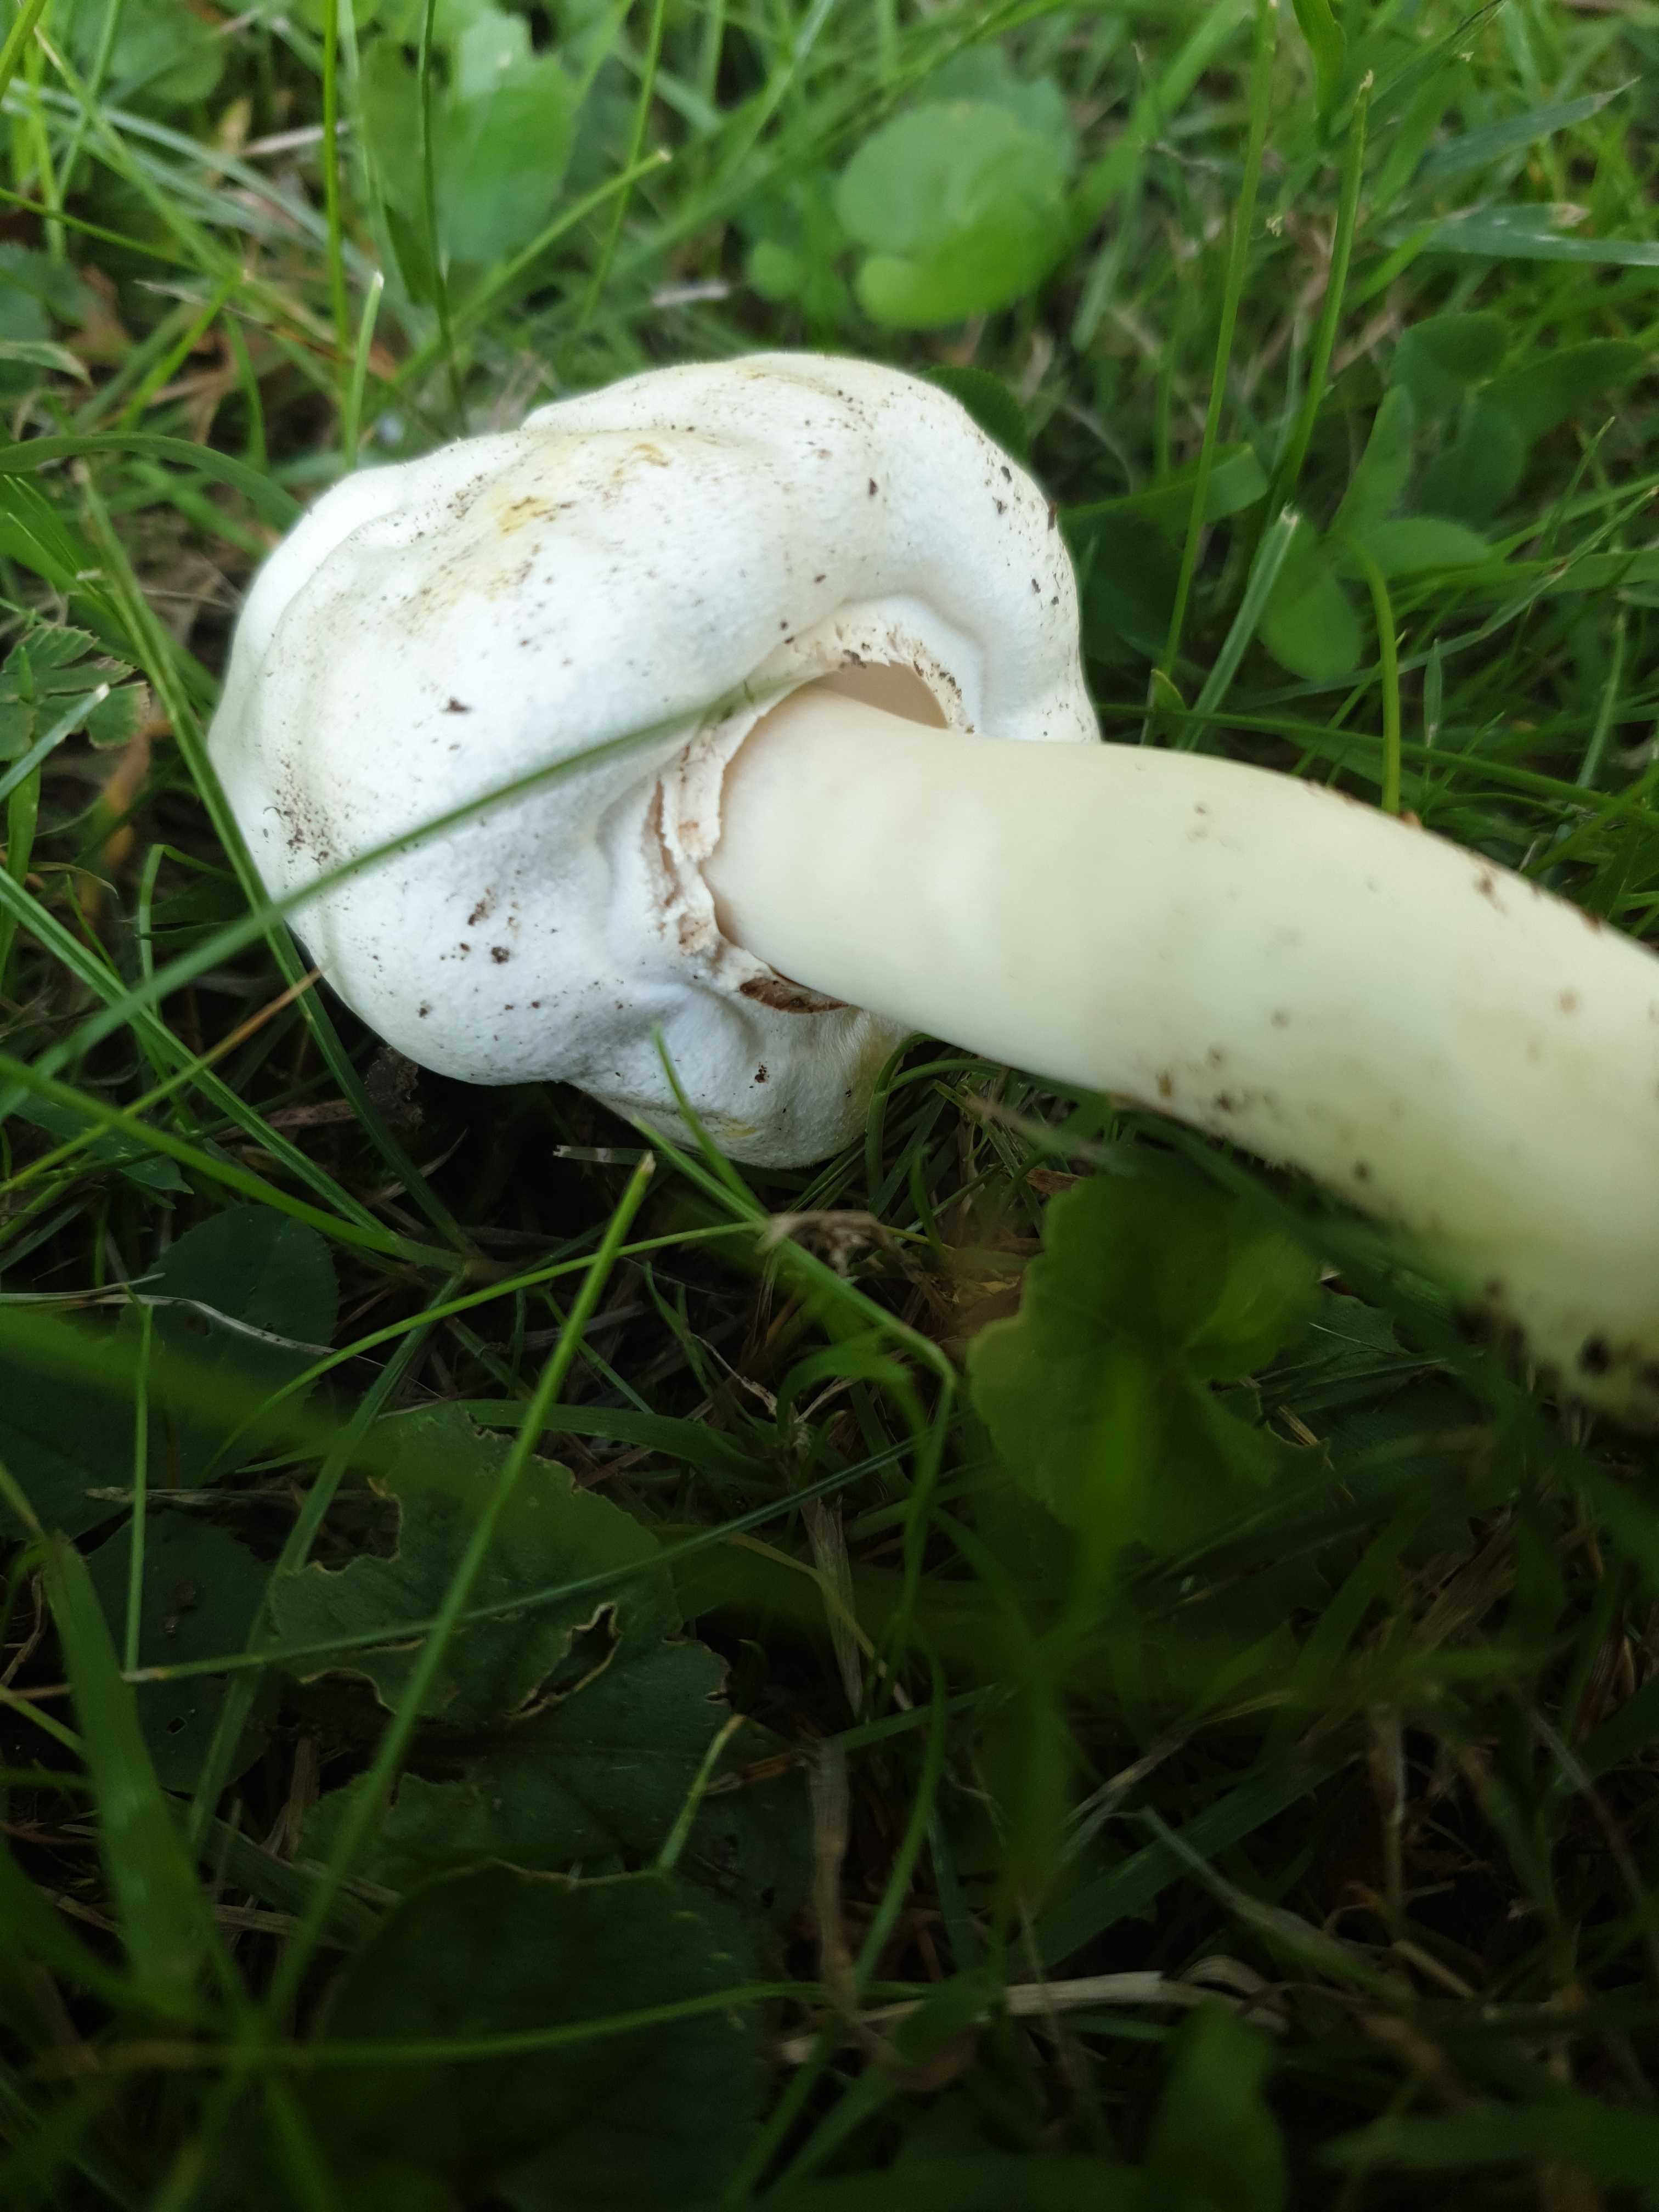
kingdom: Fungi
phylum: Basidiomycota
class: Agaricomycetes
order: Agaricales
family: Agaricaceae
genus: Agaricus
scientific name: Agaricus xanthodermus
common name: karbol-champignon
